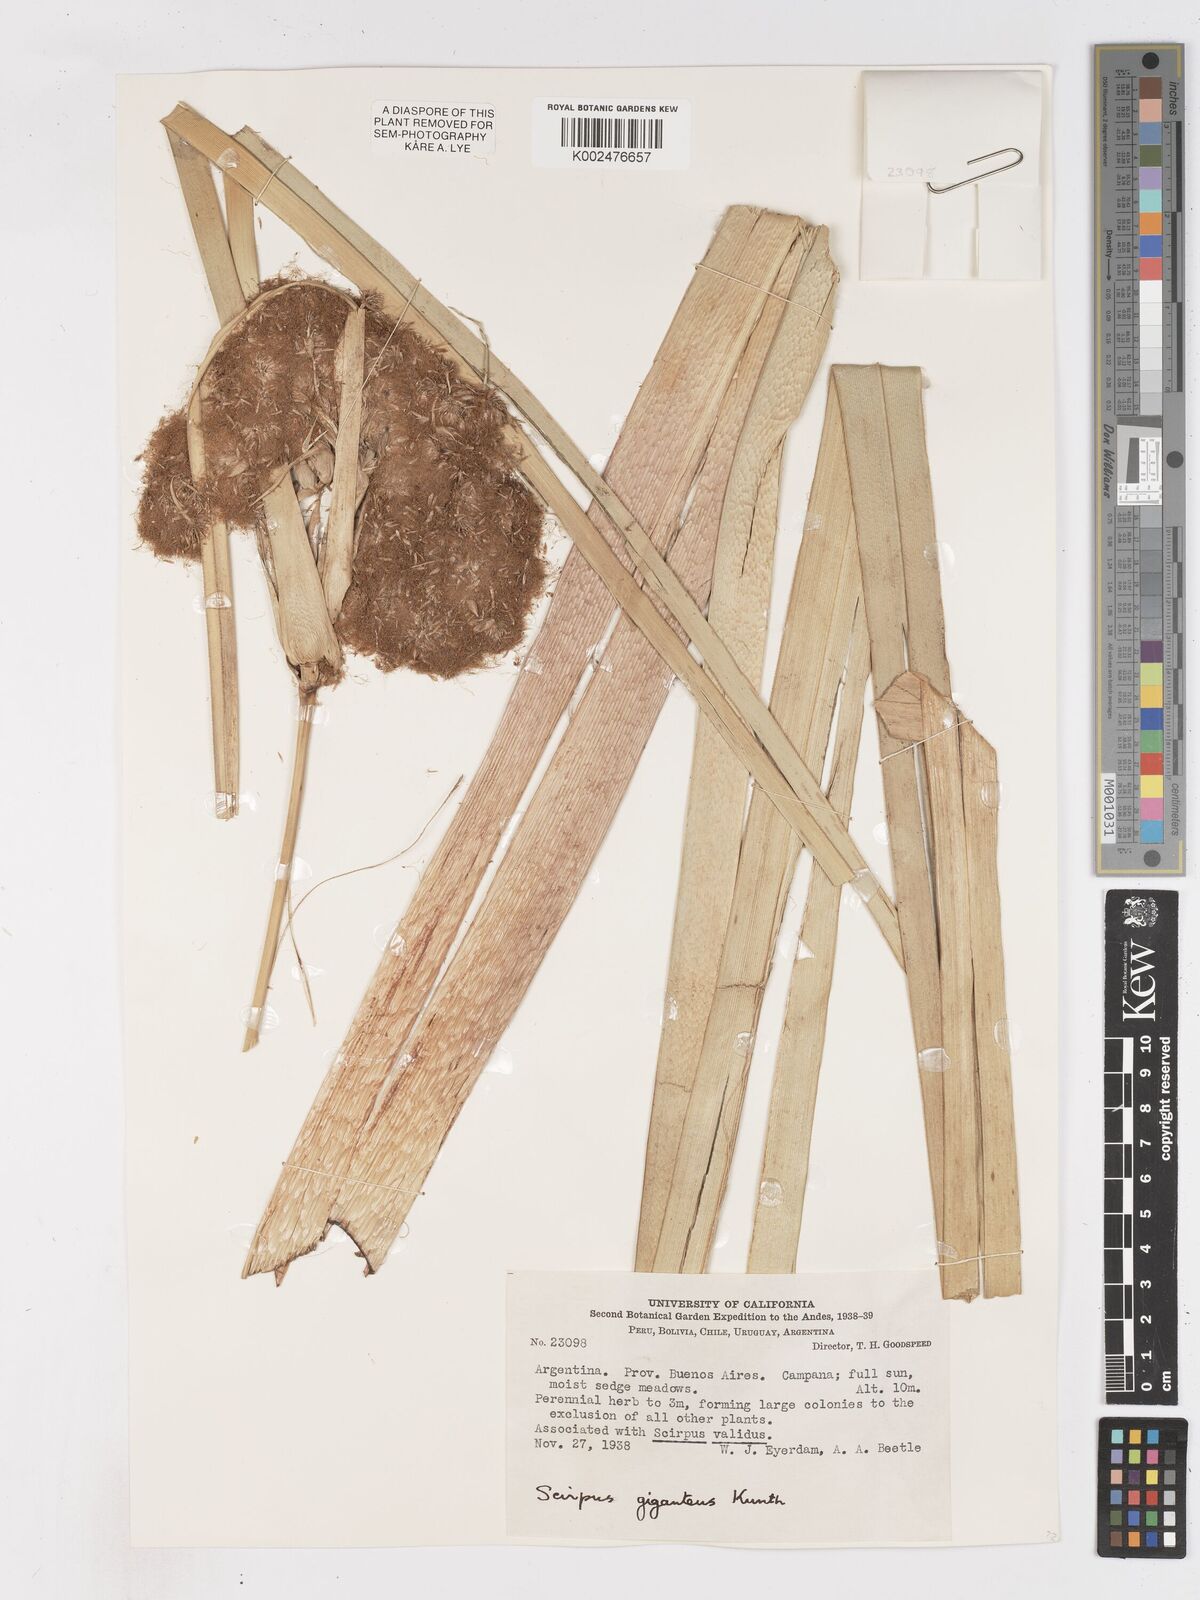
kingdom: Plantae
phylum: Tracheophyta
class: Liliopsida
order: Poales
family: Cyperaceae
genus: Cyperus
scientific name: Cyperus byssaceus
